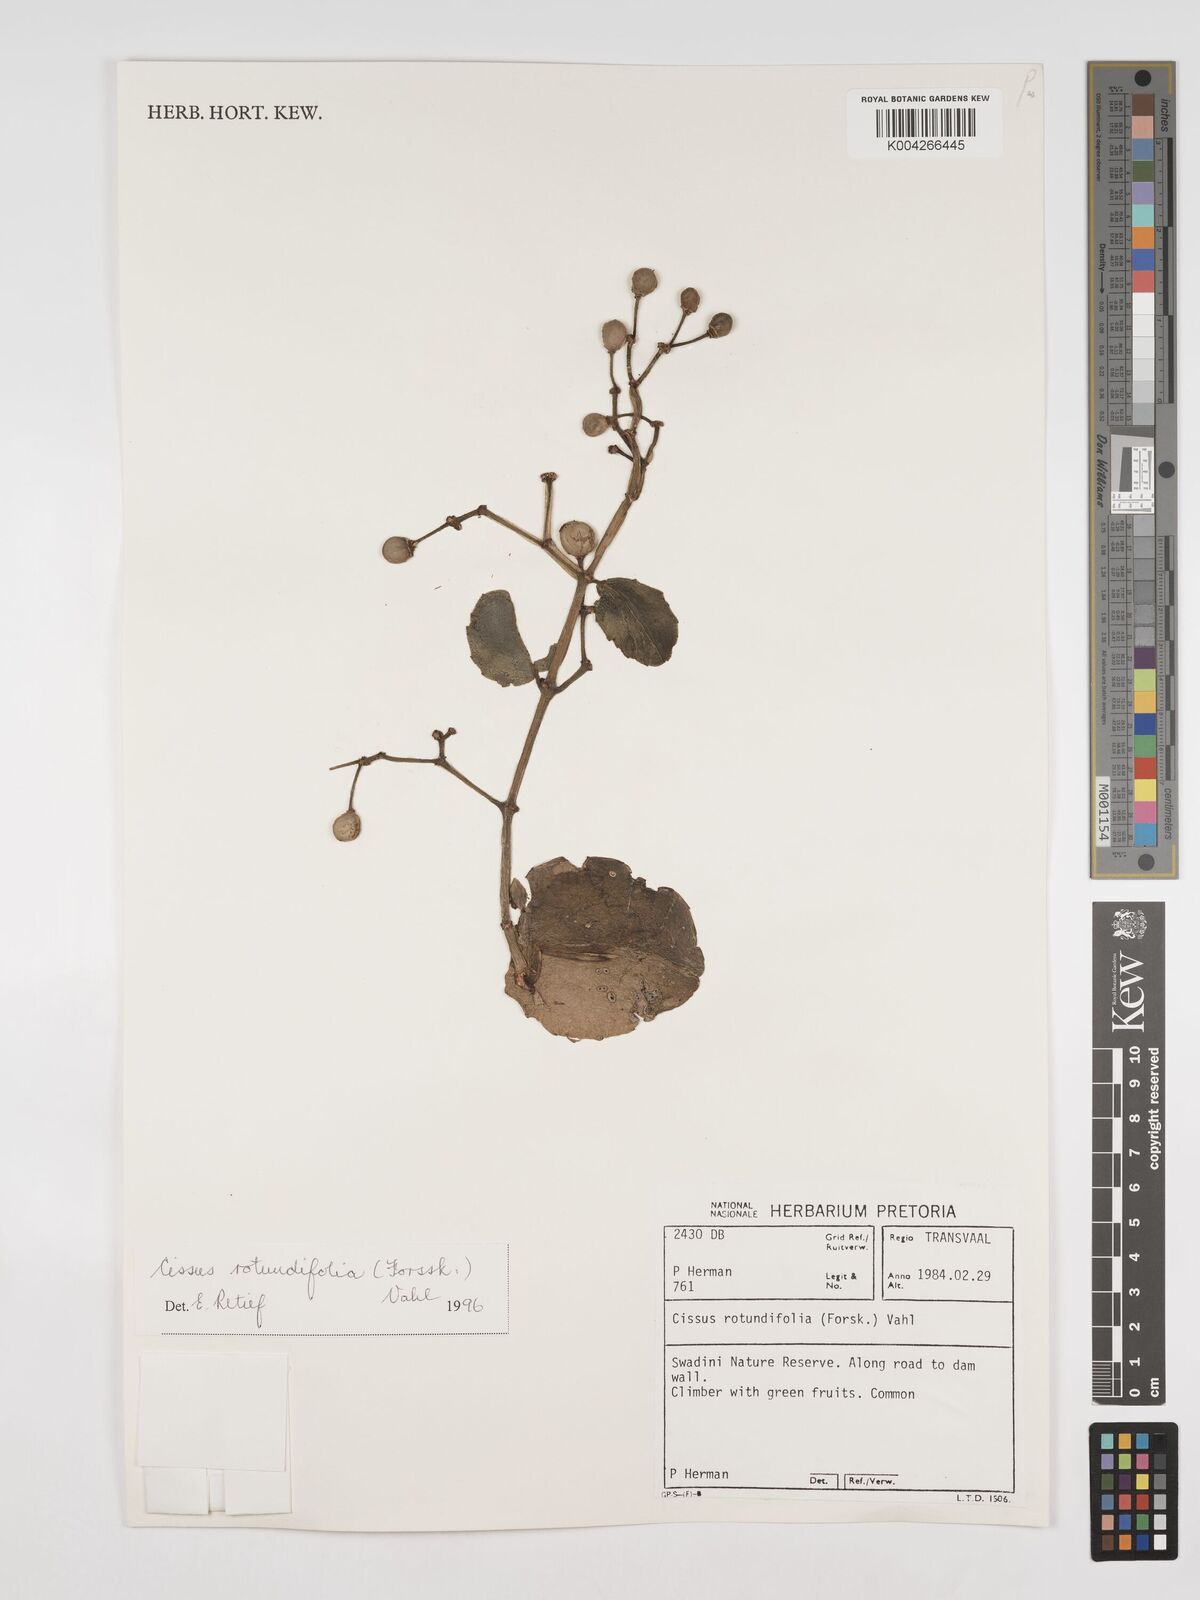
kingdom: Plantae
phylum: Tracheophyta
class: Magnoliopsida
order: Vitales
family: Vitaceae
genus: Cissus
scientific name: Cissus
